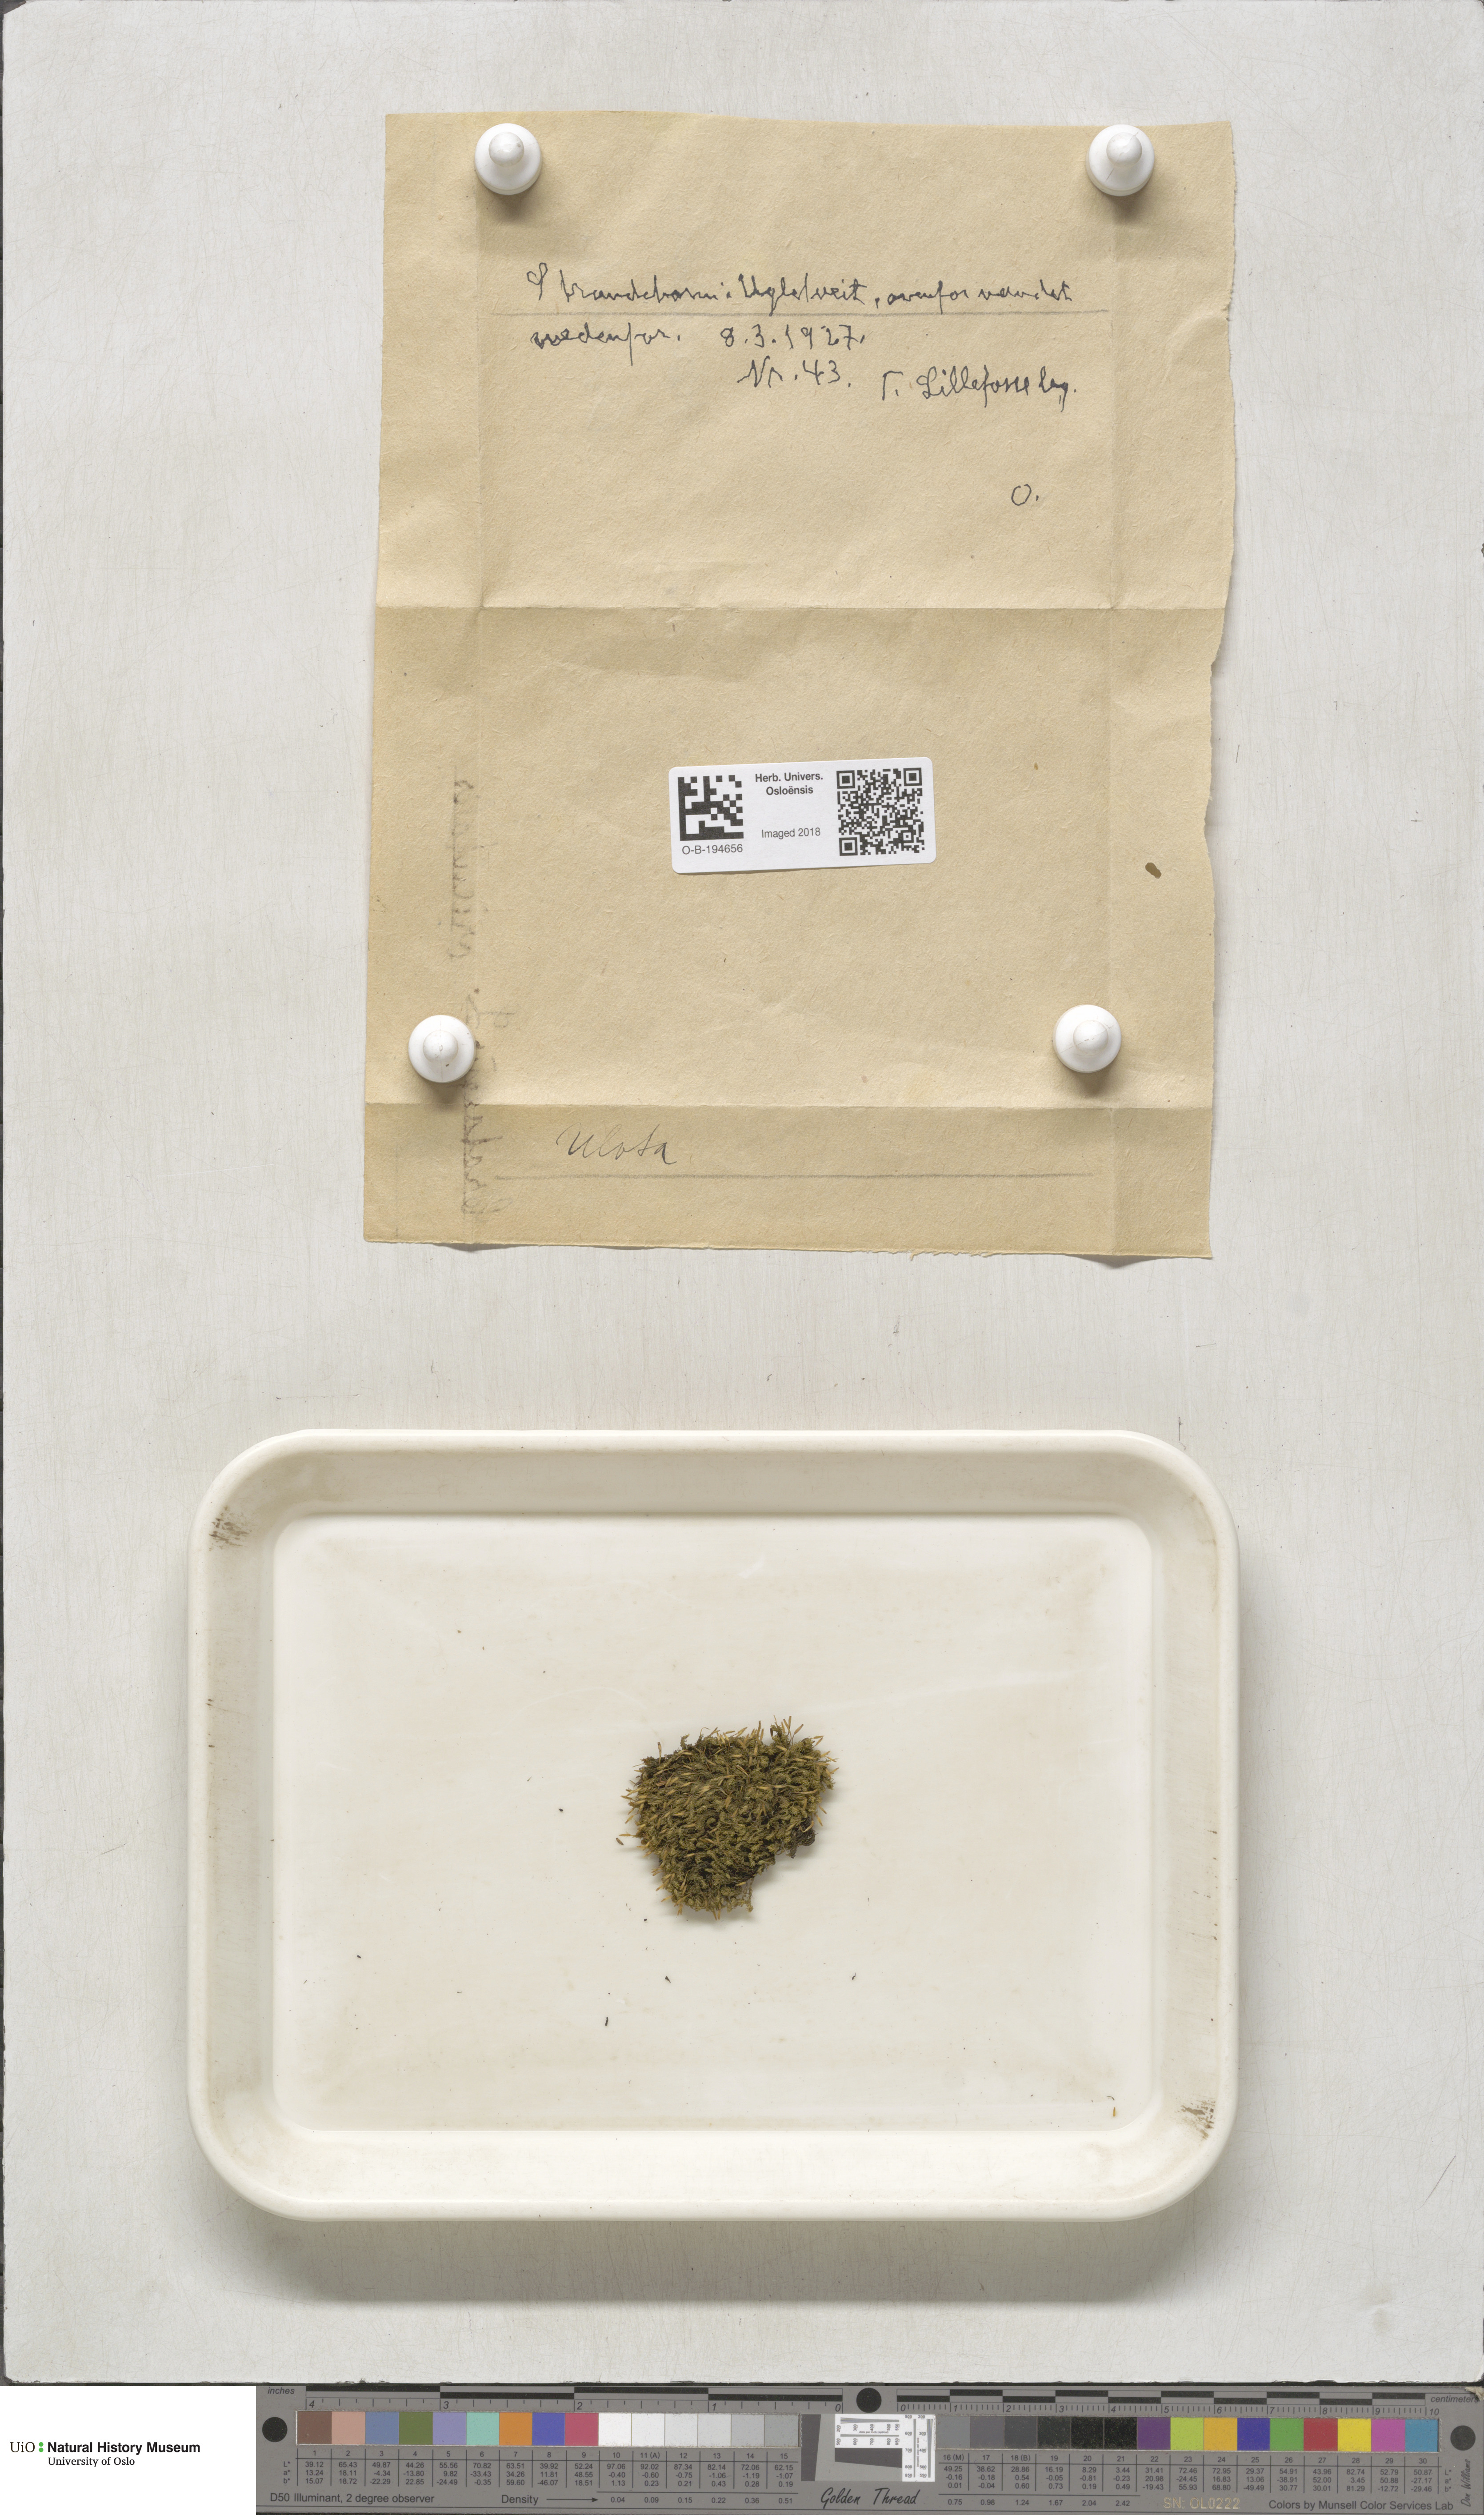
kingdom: Plantae
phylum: Bryophyta
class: Bryopsida
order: Orthotrichales
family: Orthotrichaceae
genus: Ulota
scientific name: Ulota
